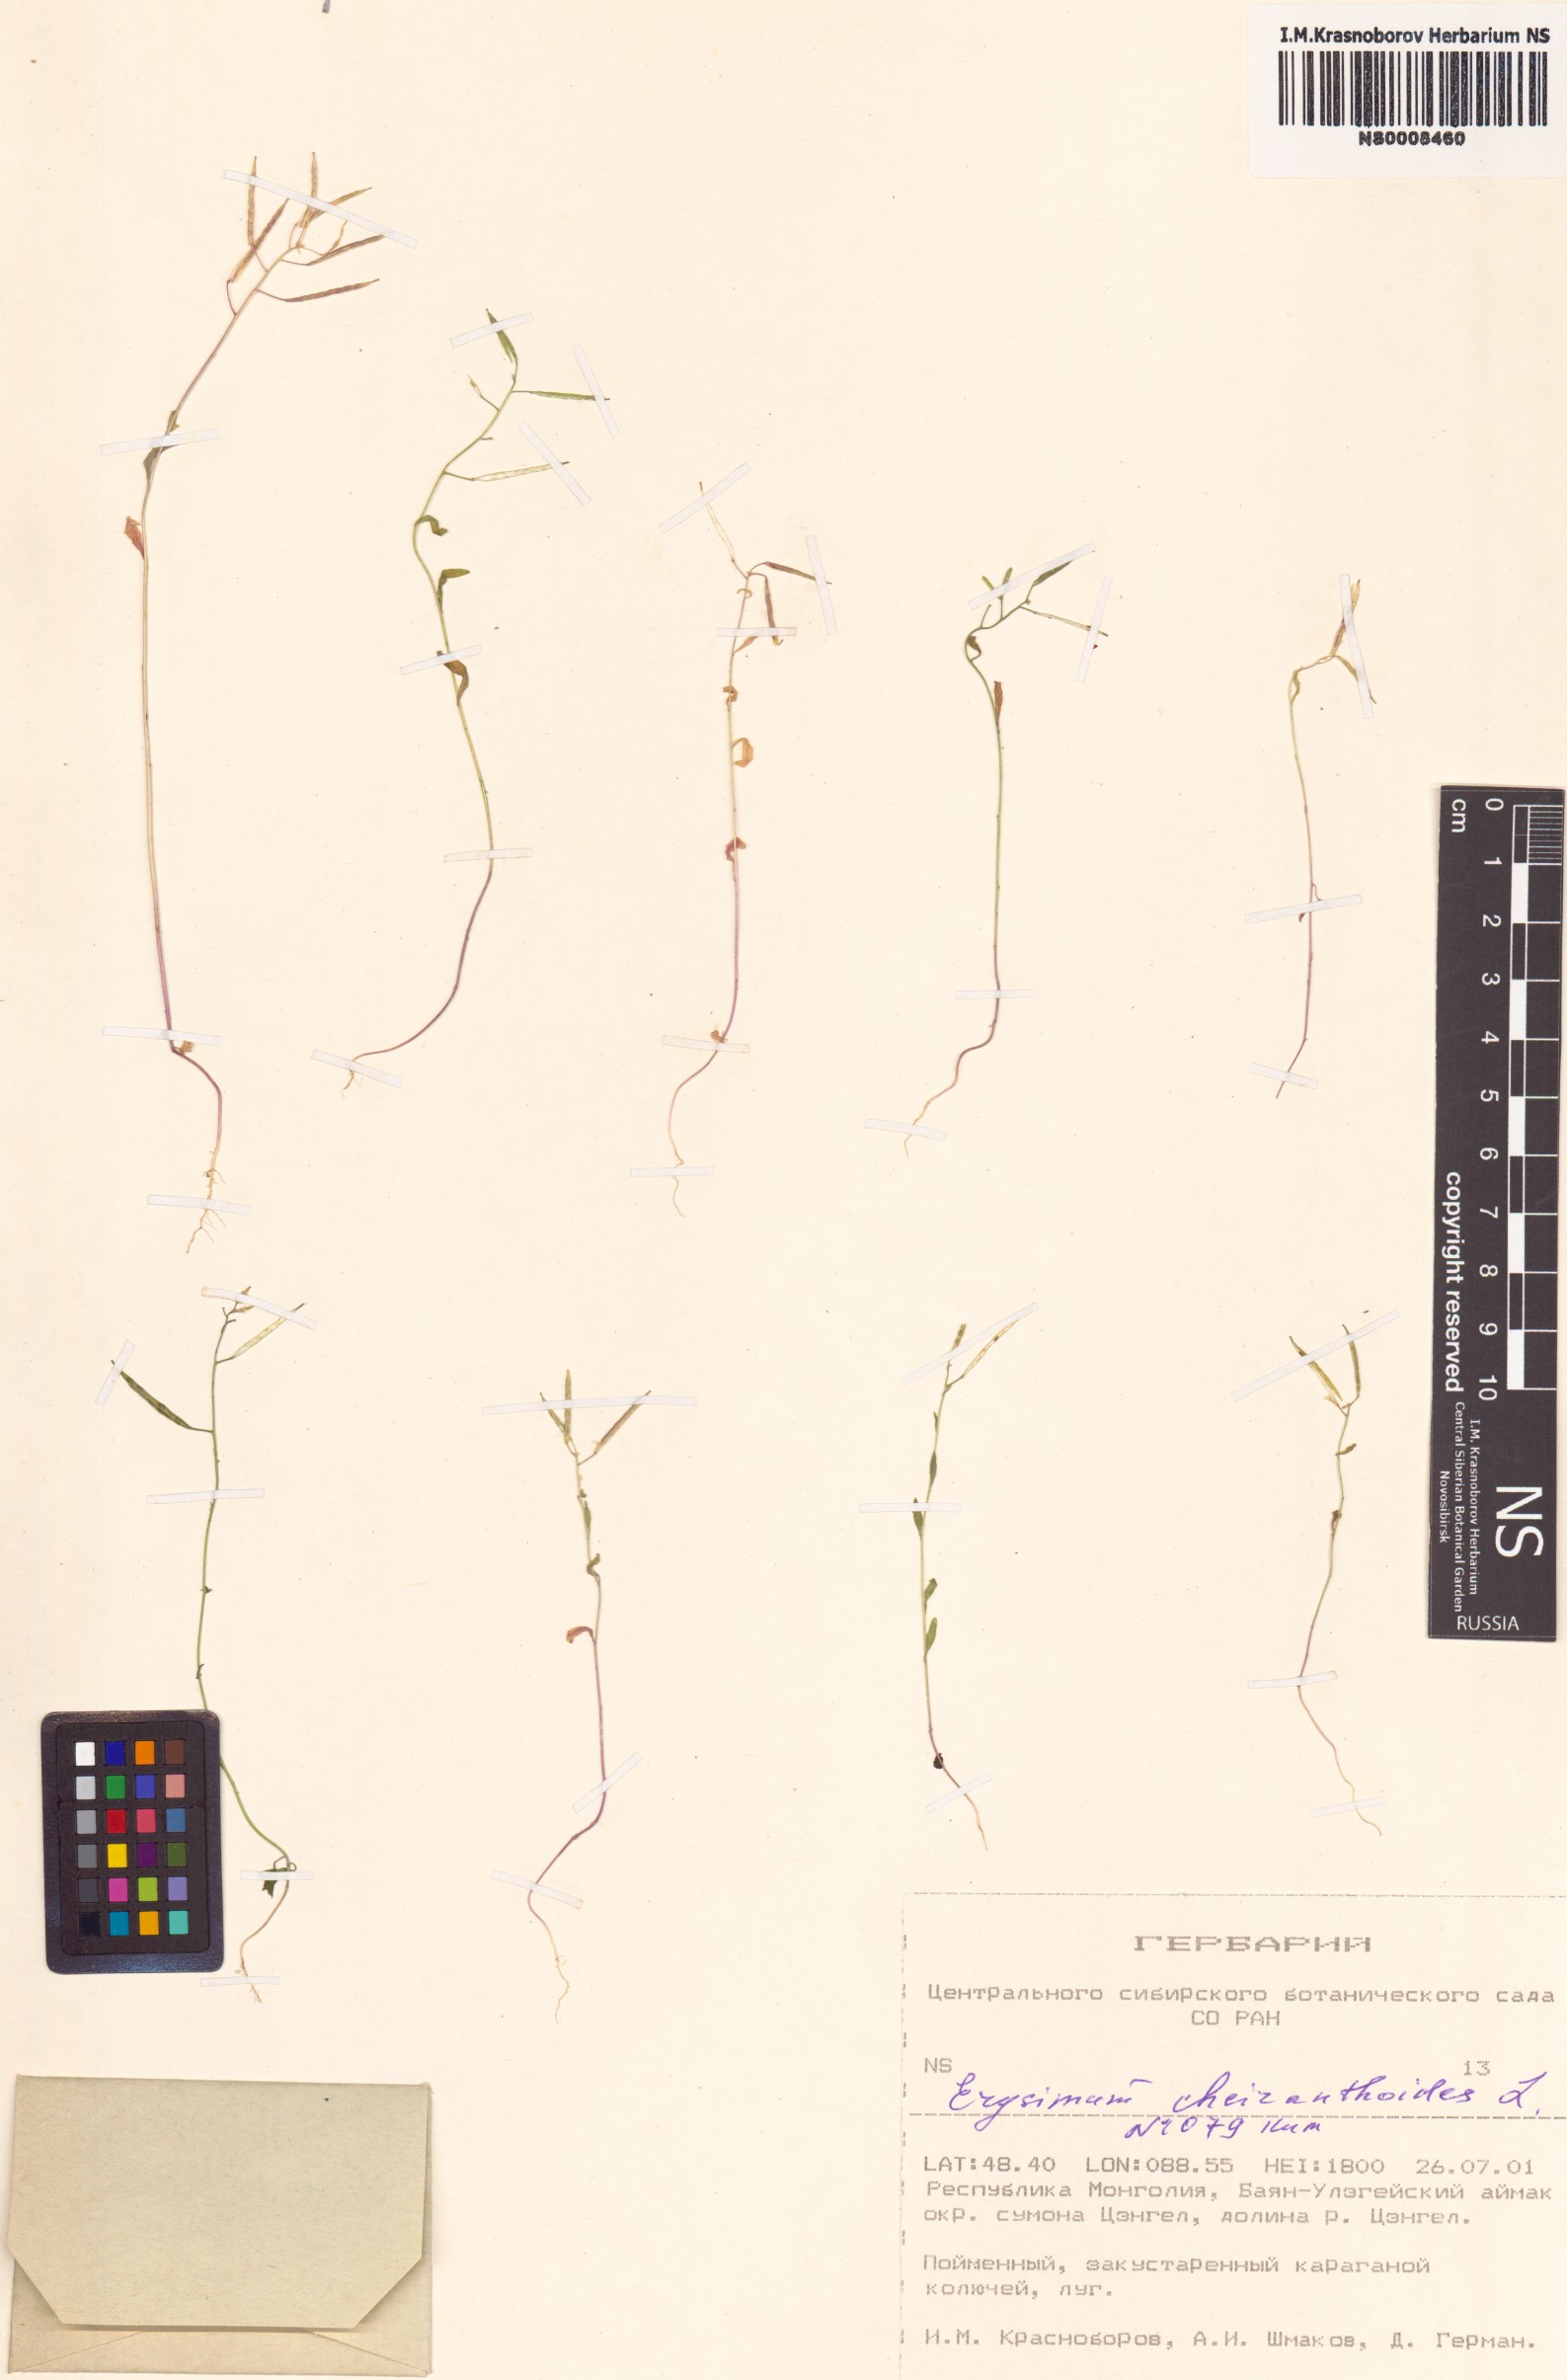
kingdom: Plantae
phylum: Tracheophyta
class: Magnoliopsida
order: Brassicales
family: Brassicaceae
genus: Erysimum
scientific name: Erysimum cheiranthoides
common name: Treacle mustard
